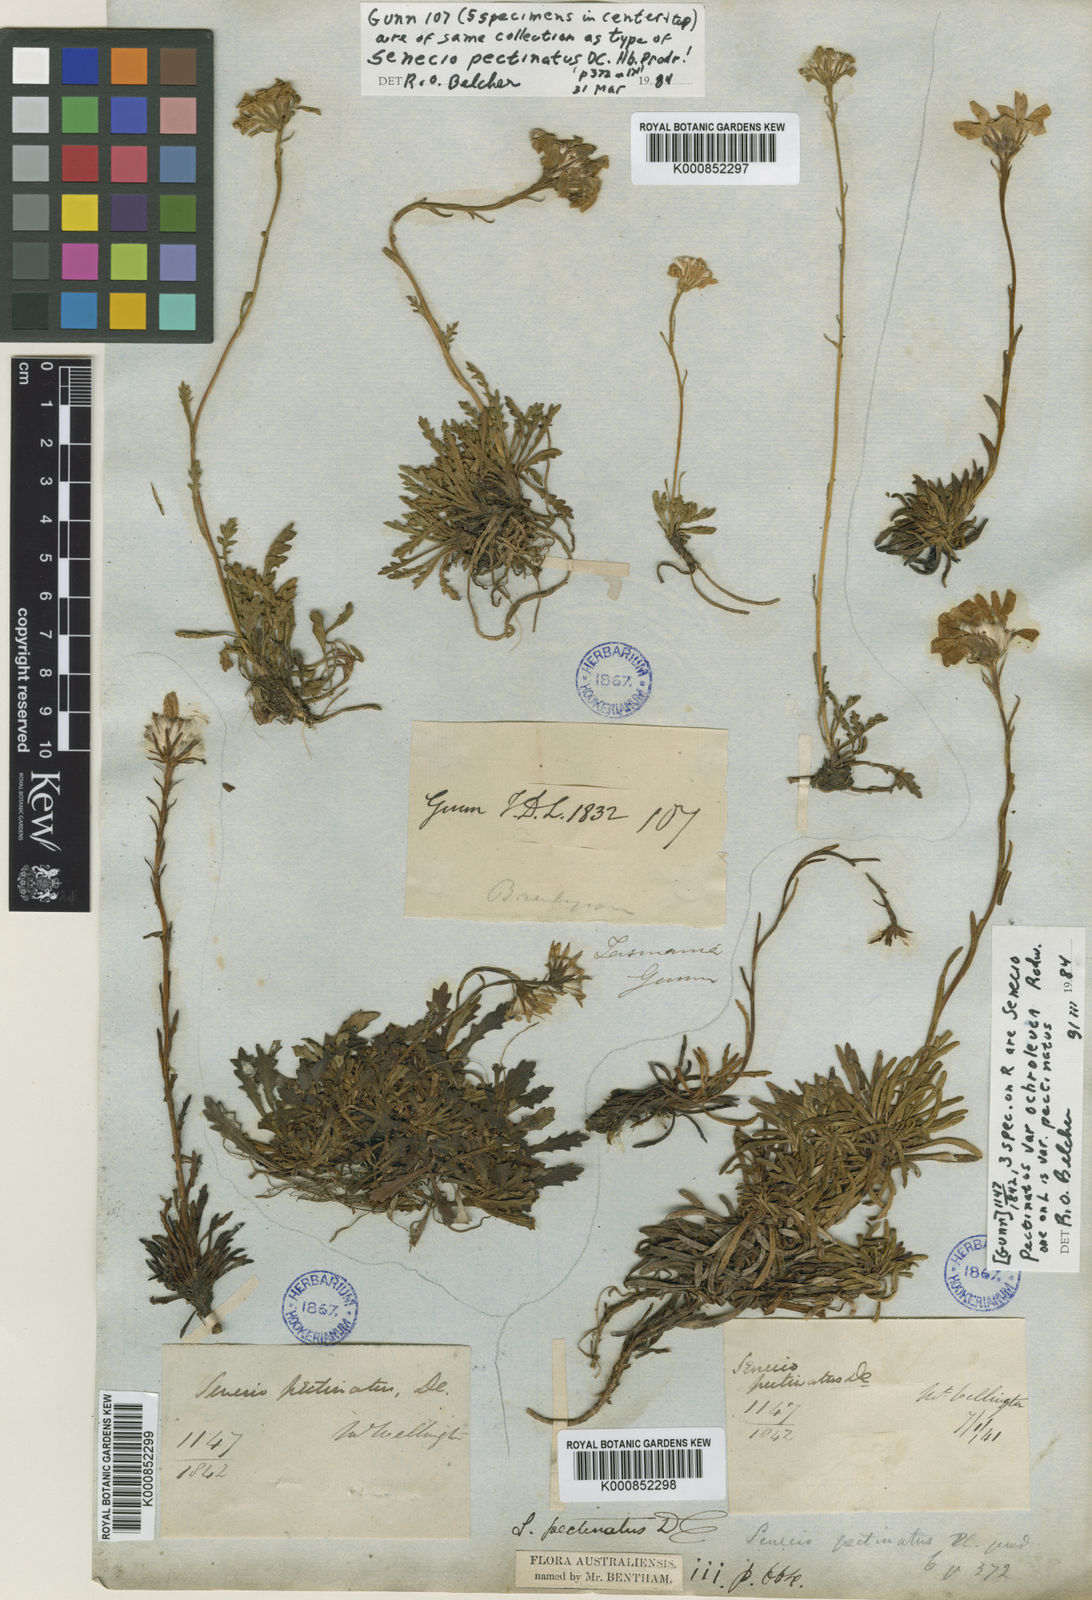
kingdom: Plantae
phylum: Tracheophyta
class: Magnoliopsida
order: Asterales
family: Asteraceae
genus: Scapisenecio
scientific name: Scapisenecio pectinatus
